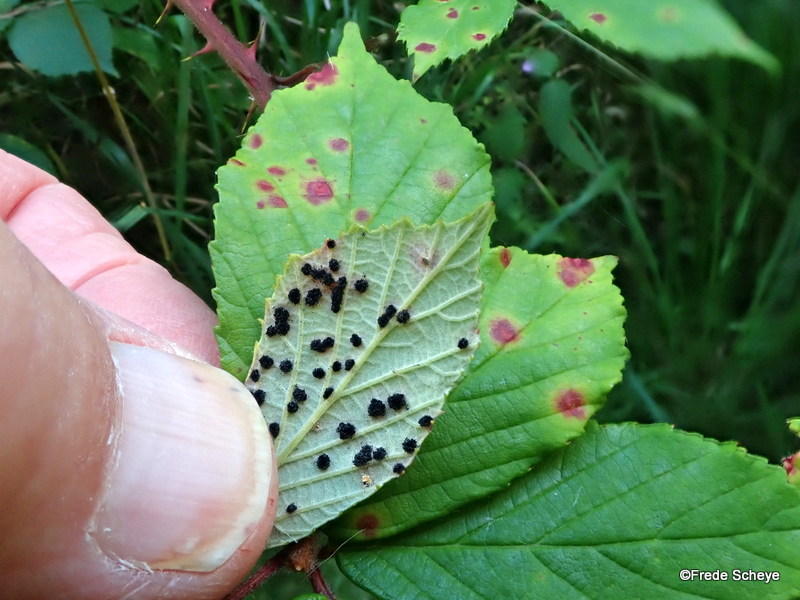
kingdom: Fungi
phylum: Basidiomycota
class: Pucciniomycetes
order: Pucciniales
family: Phragmidiaceae
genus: Phragmidium
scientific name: Phragmidium violaceum
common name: violet flercellerust
